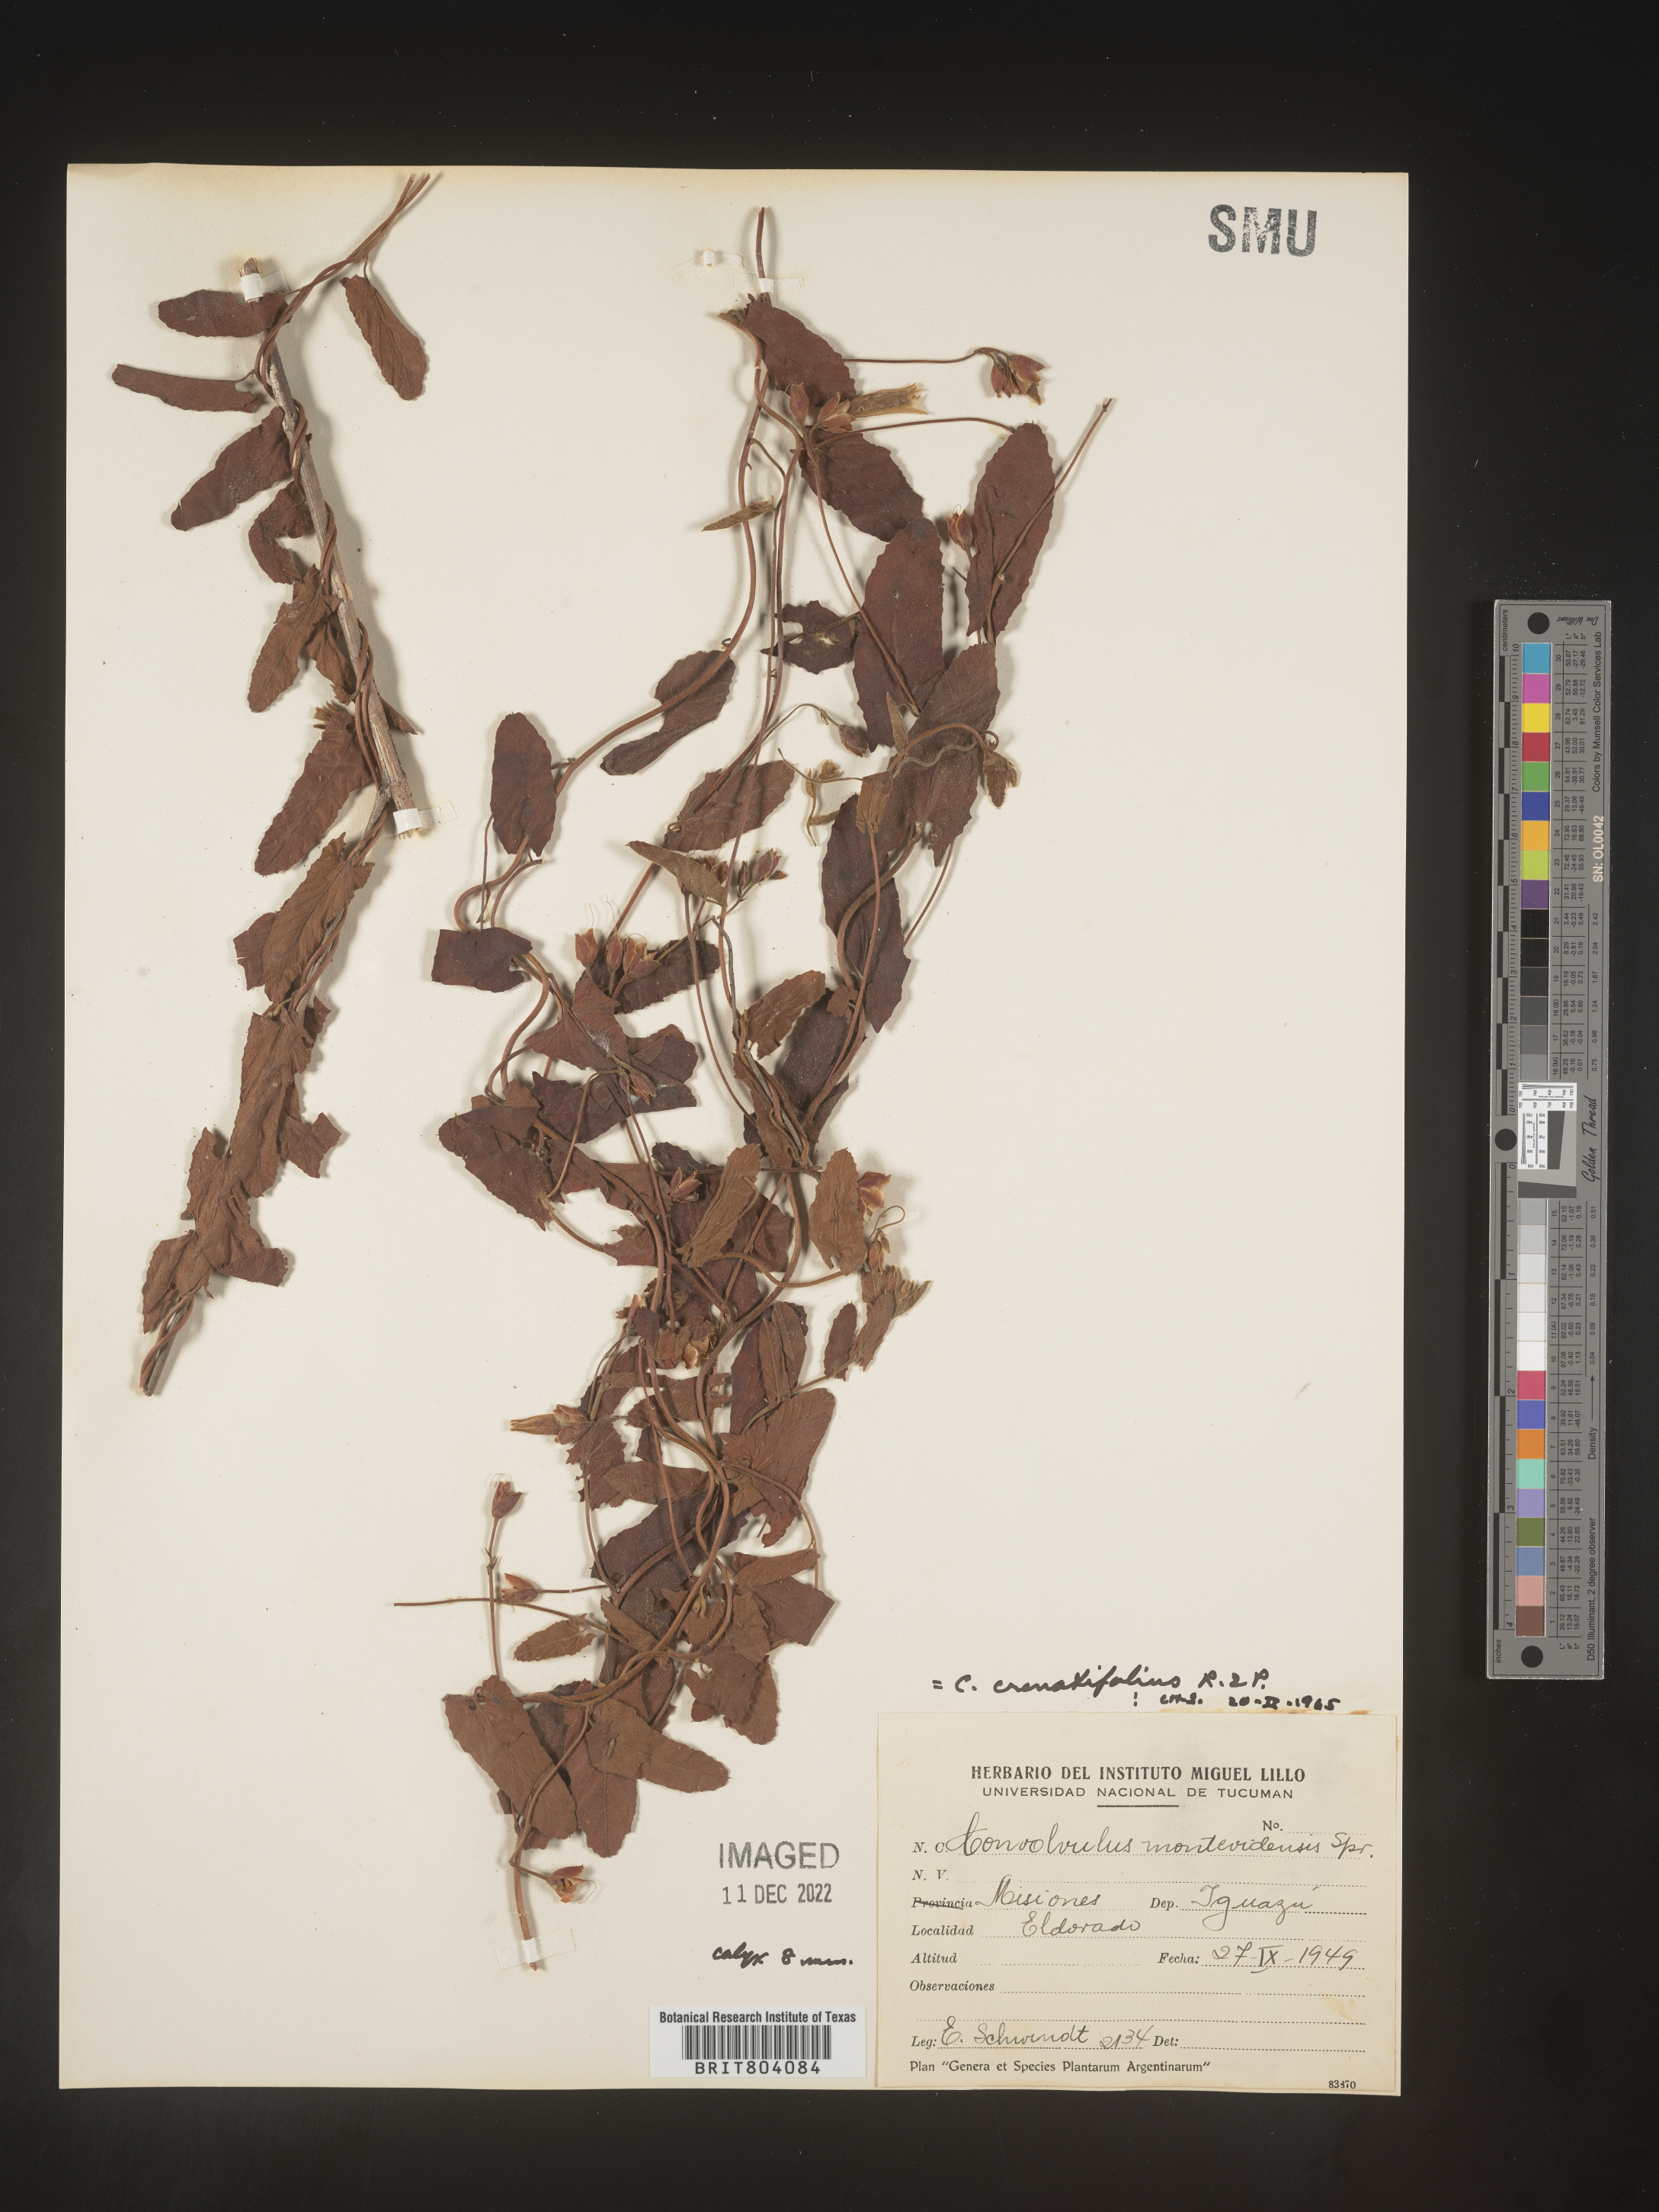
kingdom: Plantae
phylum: Tracheophyta
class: Magnoliopsida
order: Solanales
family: Convolvulaceae
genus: Convolvulus
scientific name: Convolvulus
